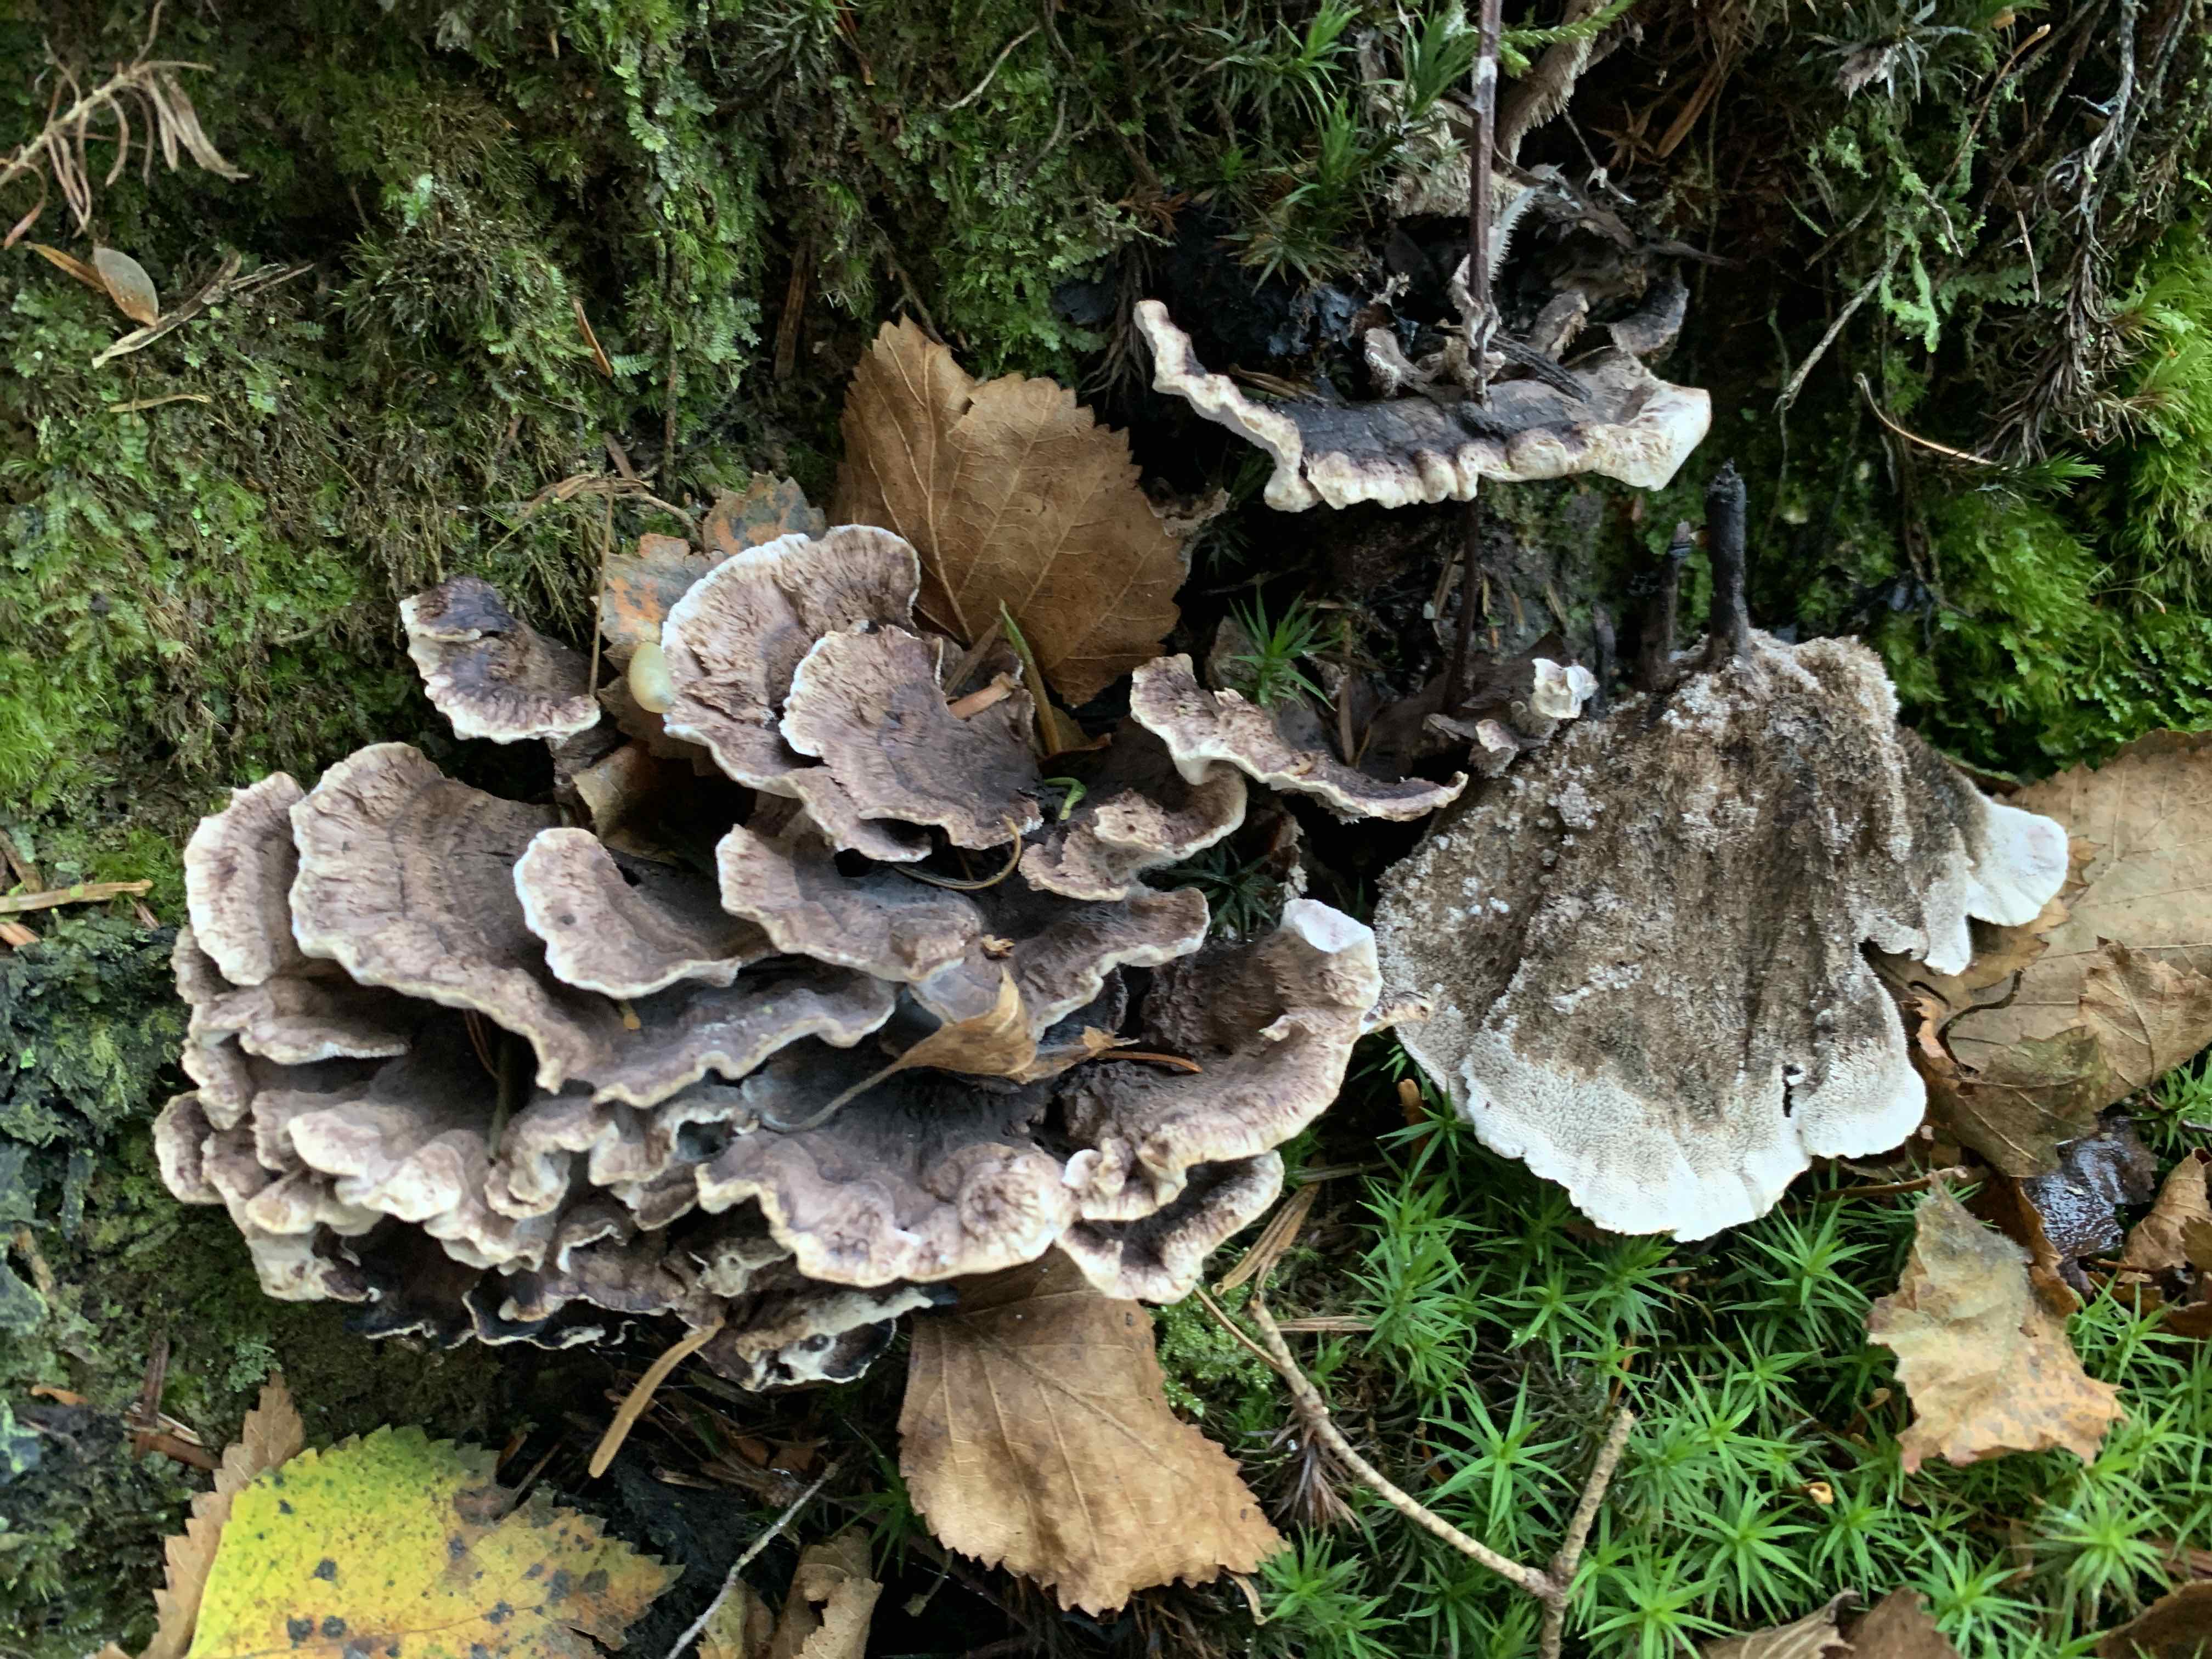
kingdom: Fungi
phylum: Basidiomycota
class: Agaricomycetes
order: Thelephorales
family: Thelephoraceae
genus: Phellodon
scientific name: Phellodon tomentosus
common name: vellugtende duftpigsvamp
